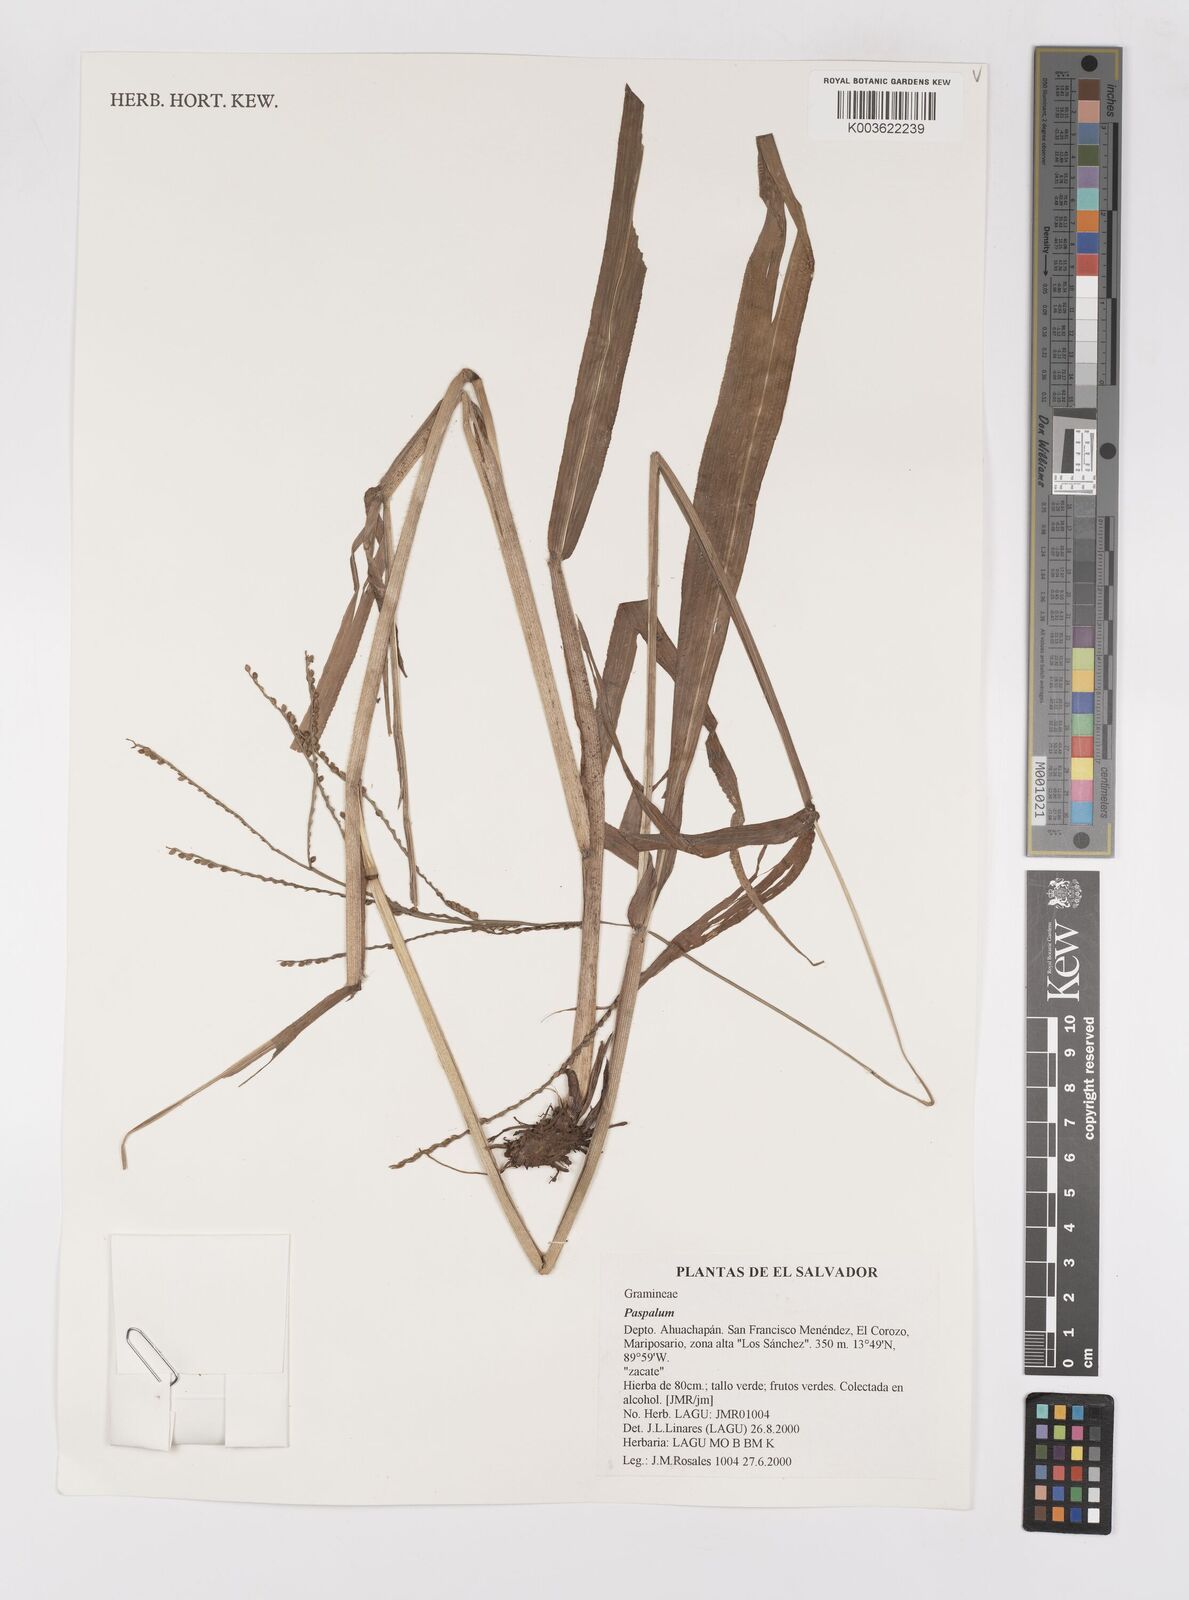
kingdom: Plantae
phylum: Tracheophyta
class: Liliopsida
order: Poales
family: Poaceae
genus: Paspalum
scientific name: Paspalum
